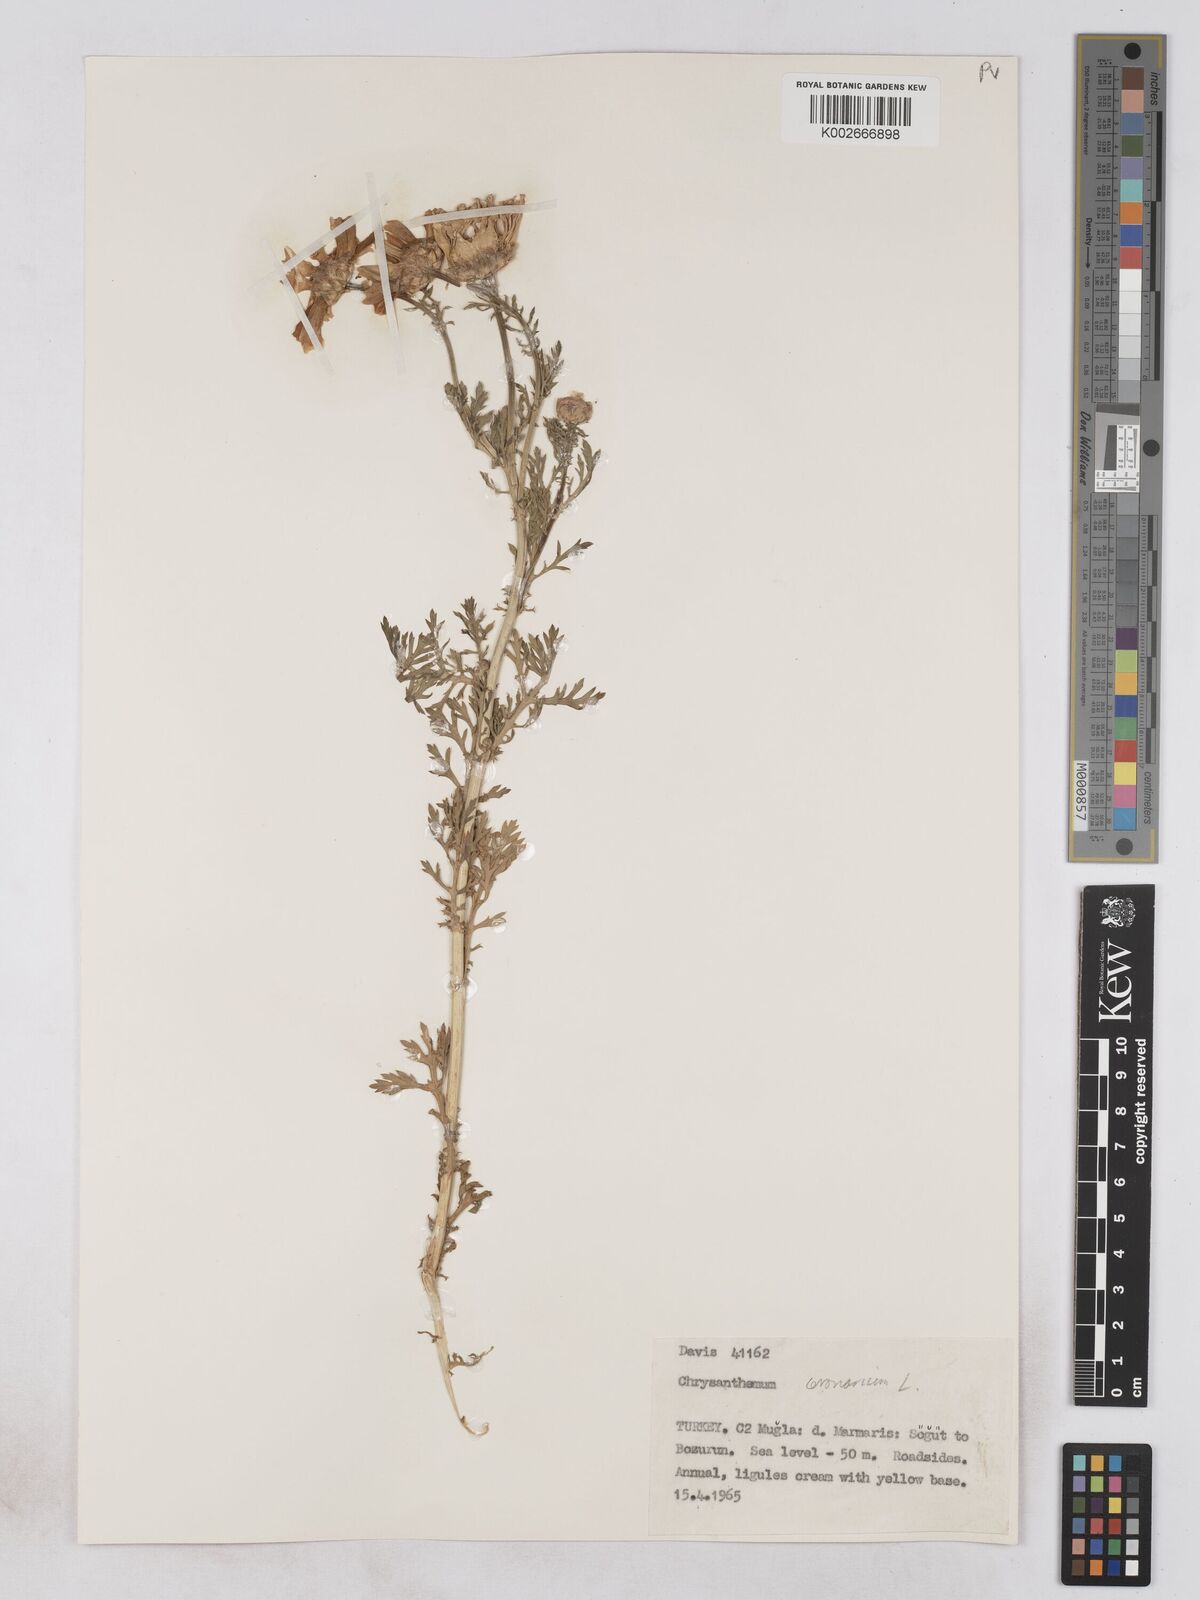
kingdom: Plantae
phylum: Tracheophyta
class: Magnoliopsida
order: Asterales
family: Asteraceae
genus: Glebionis
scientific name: Glebionis coronaria
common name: Crowndaisy
